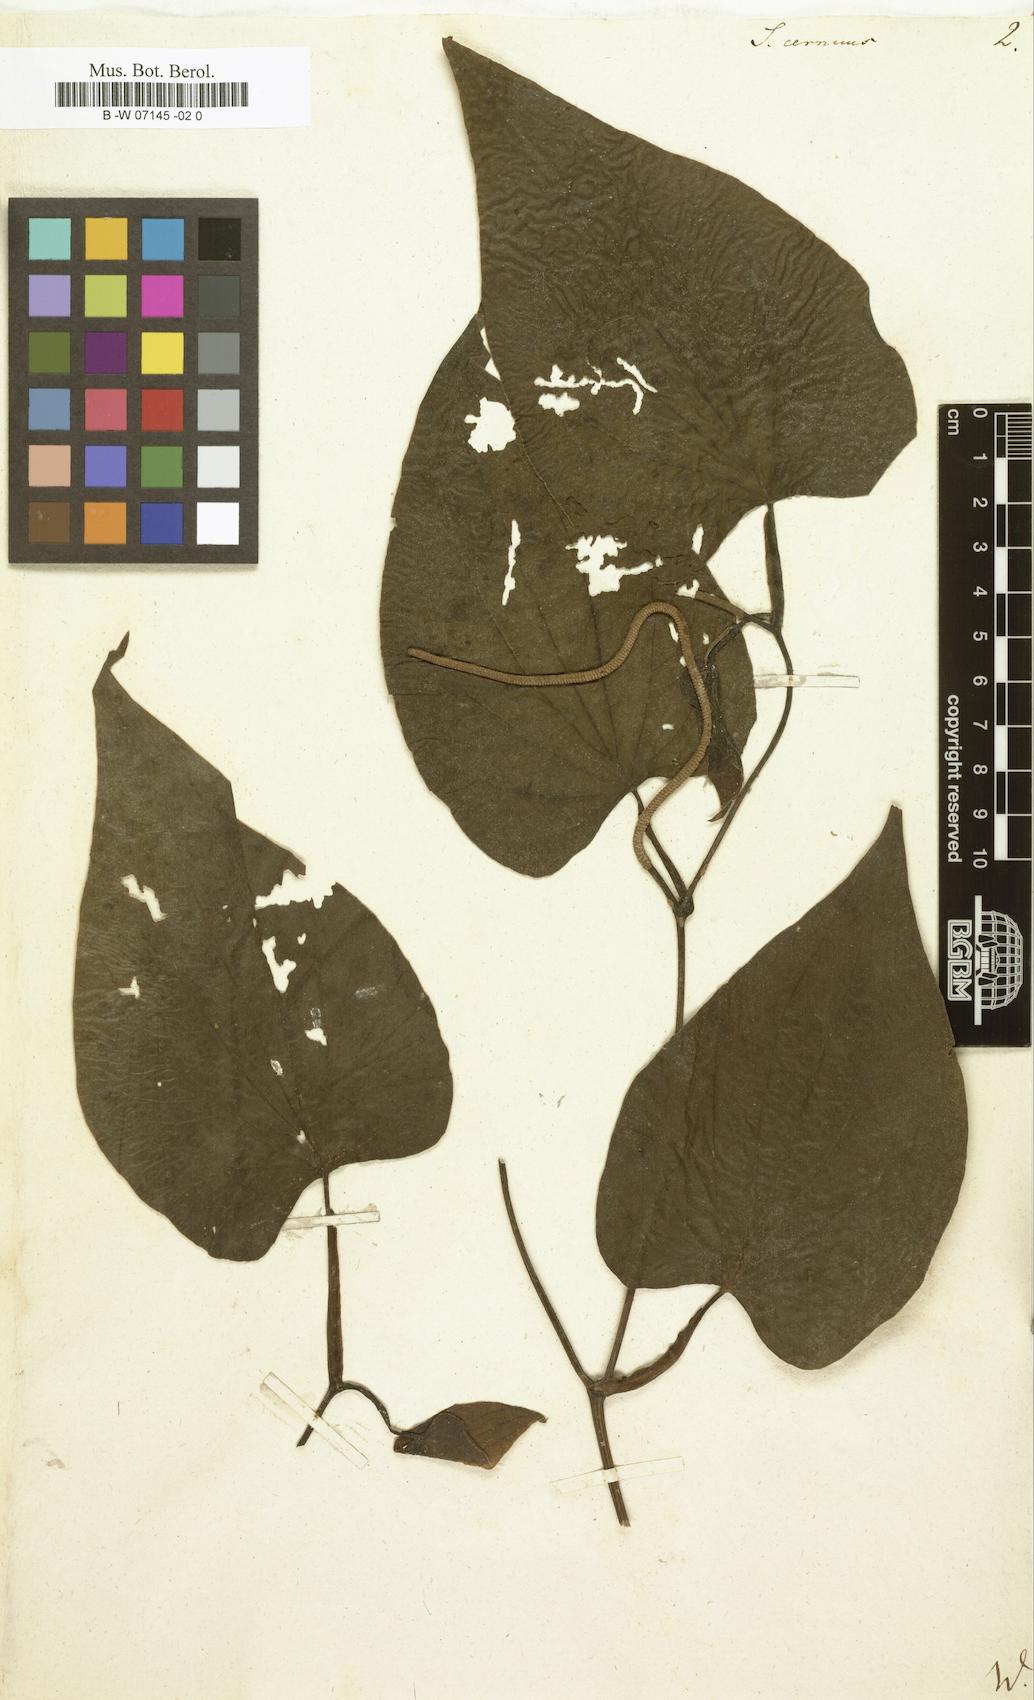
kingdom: Plantae
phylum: Tracheophyta
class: Magnoliopsida
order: Piperales
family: Saururaceae
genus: Saururus
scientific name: Saururus cernuus
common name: Lizard's-tail
